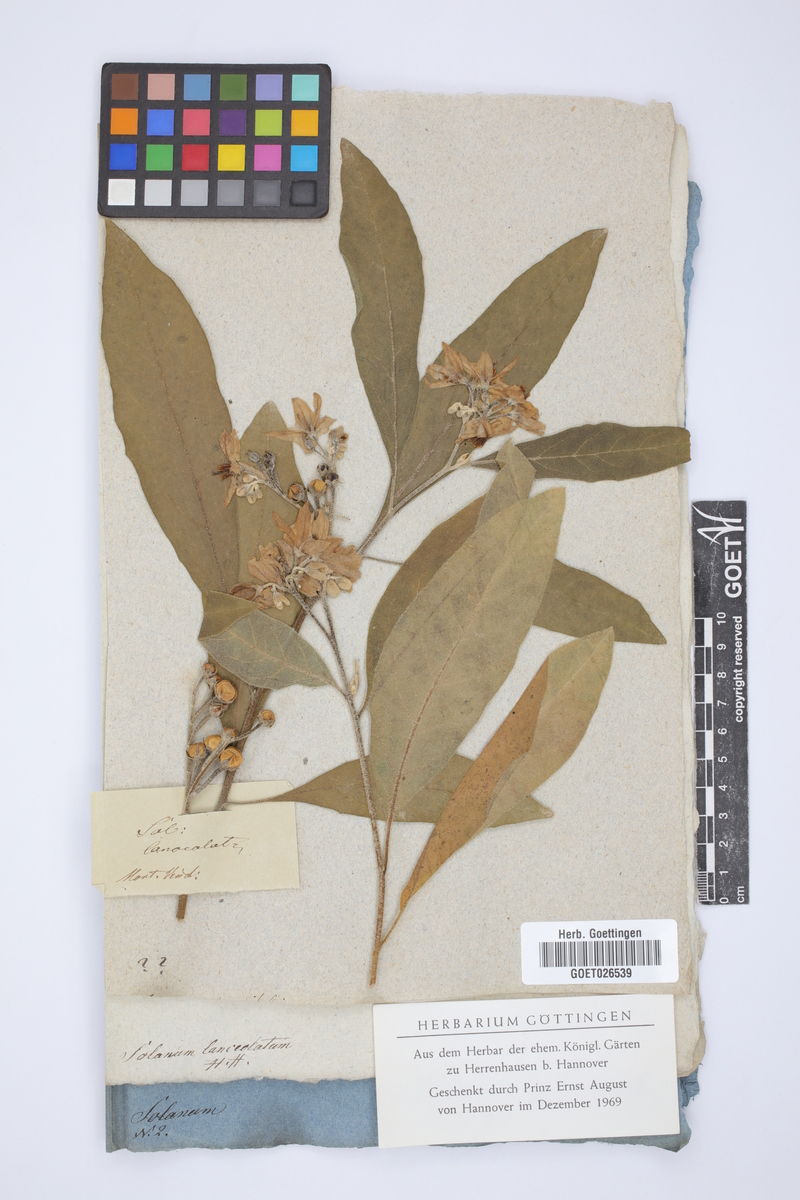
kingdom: Plantae
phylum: Tracheophyta
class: Magnoliopsida
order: Solanales
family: Solanaceae
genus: Solanum
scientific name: Solanum lanceolatum
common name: Orangeberry nightshade
